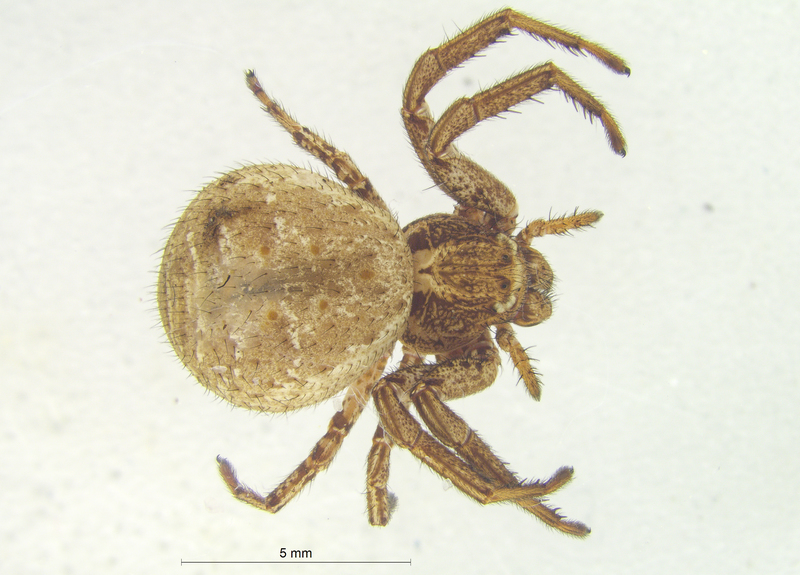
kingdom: Animalia
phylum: Arthropoda
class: Arachnida
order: Araneae
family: Thomisidae
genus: Xysticus
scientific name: Xysticus acerbus
